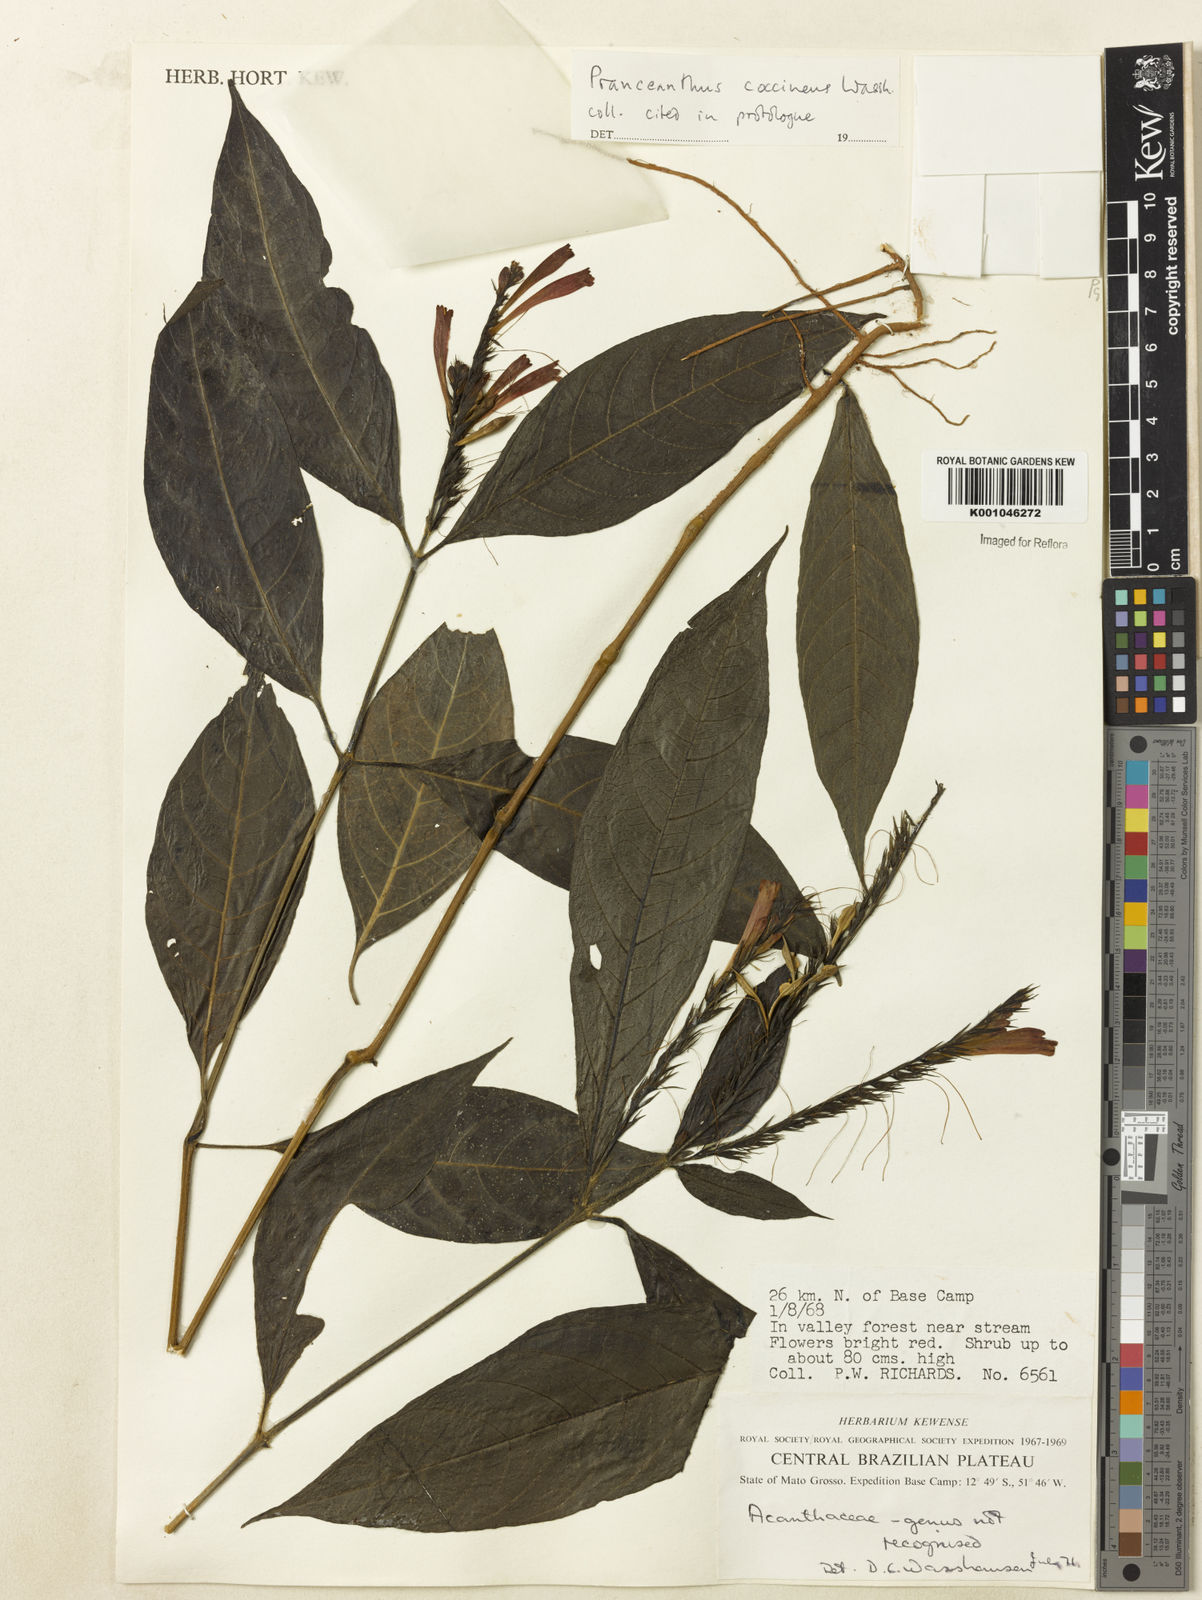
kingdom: Plantae
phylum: Tracheophyta
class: Magnoliopsida
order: Lamiales
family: Acanthaceae
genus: Pranceacanthus
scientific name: Pranceacanthus coccineus
